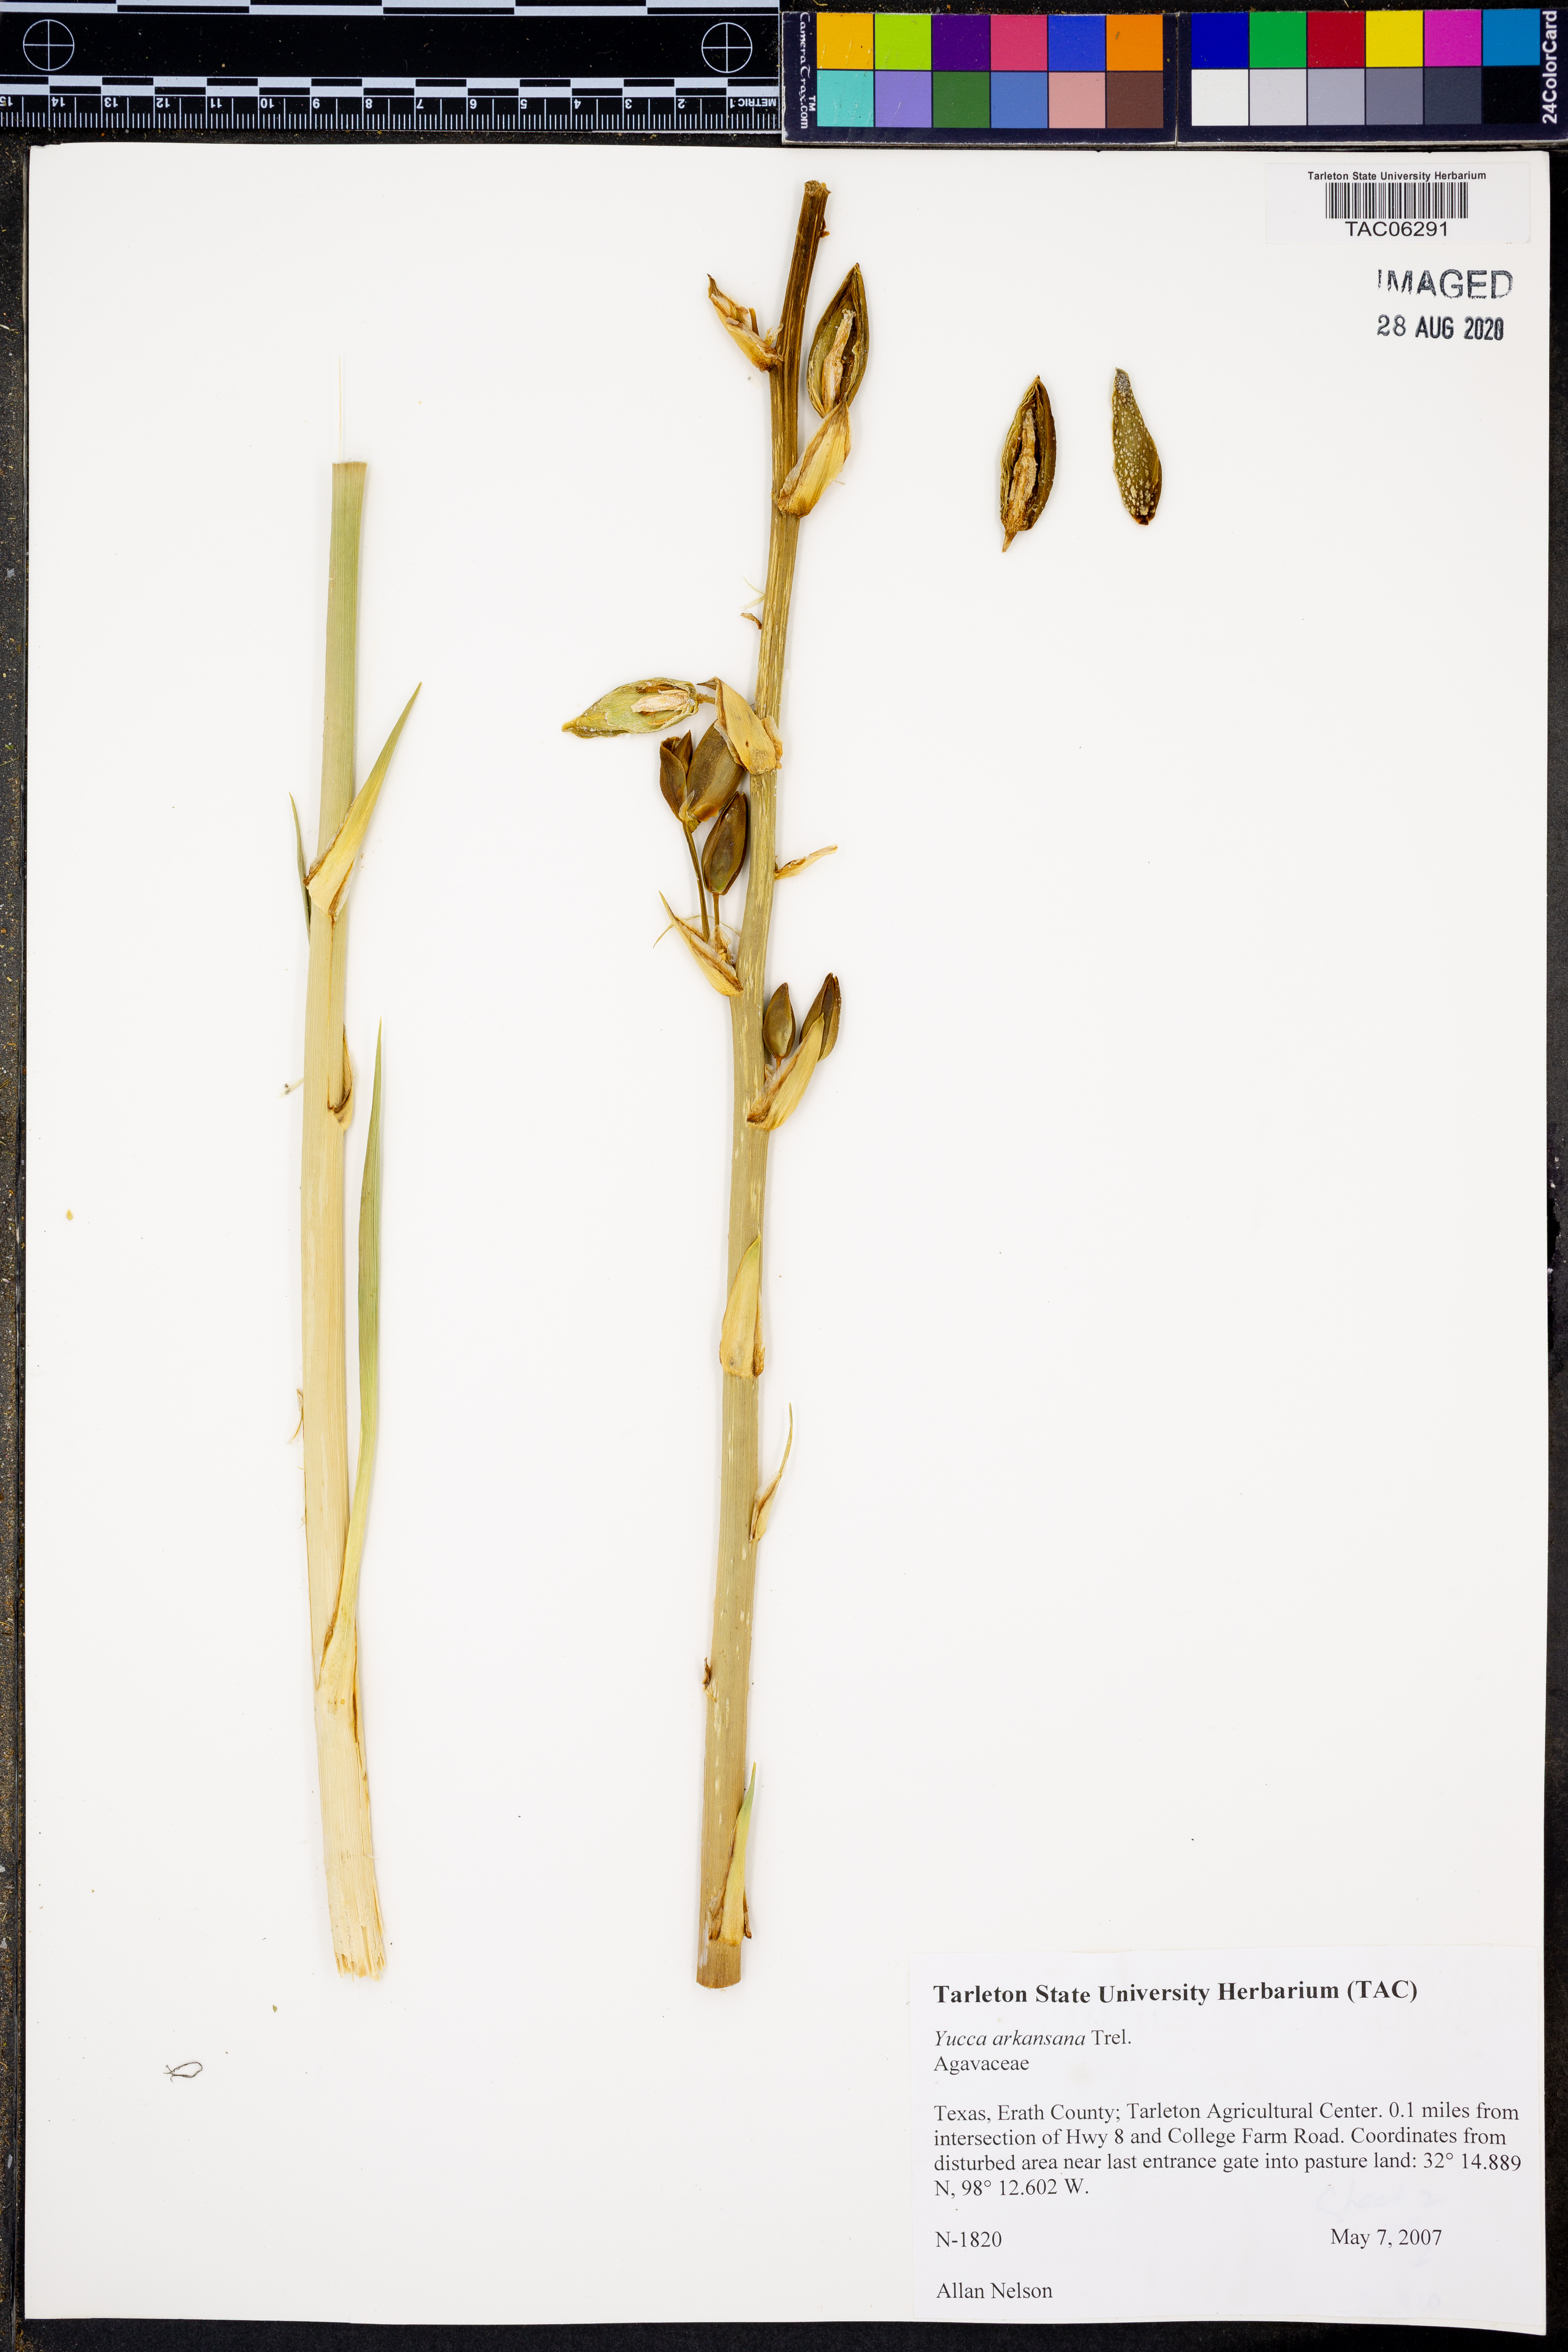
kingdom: Plantae
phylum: Tracheophyta
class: Liliopsida
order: Asparagales
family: Asparagaceae
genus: Yucca
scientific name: Yucca arkansana
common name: Arkansas yucca
